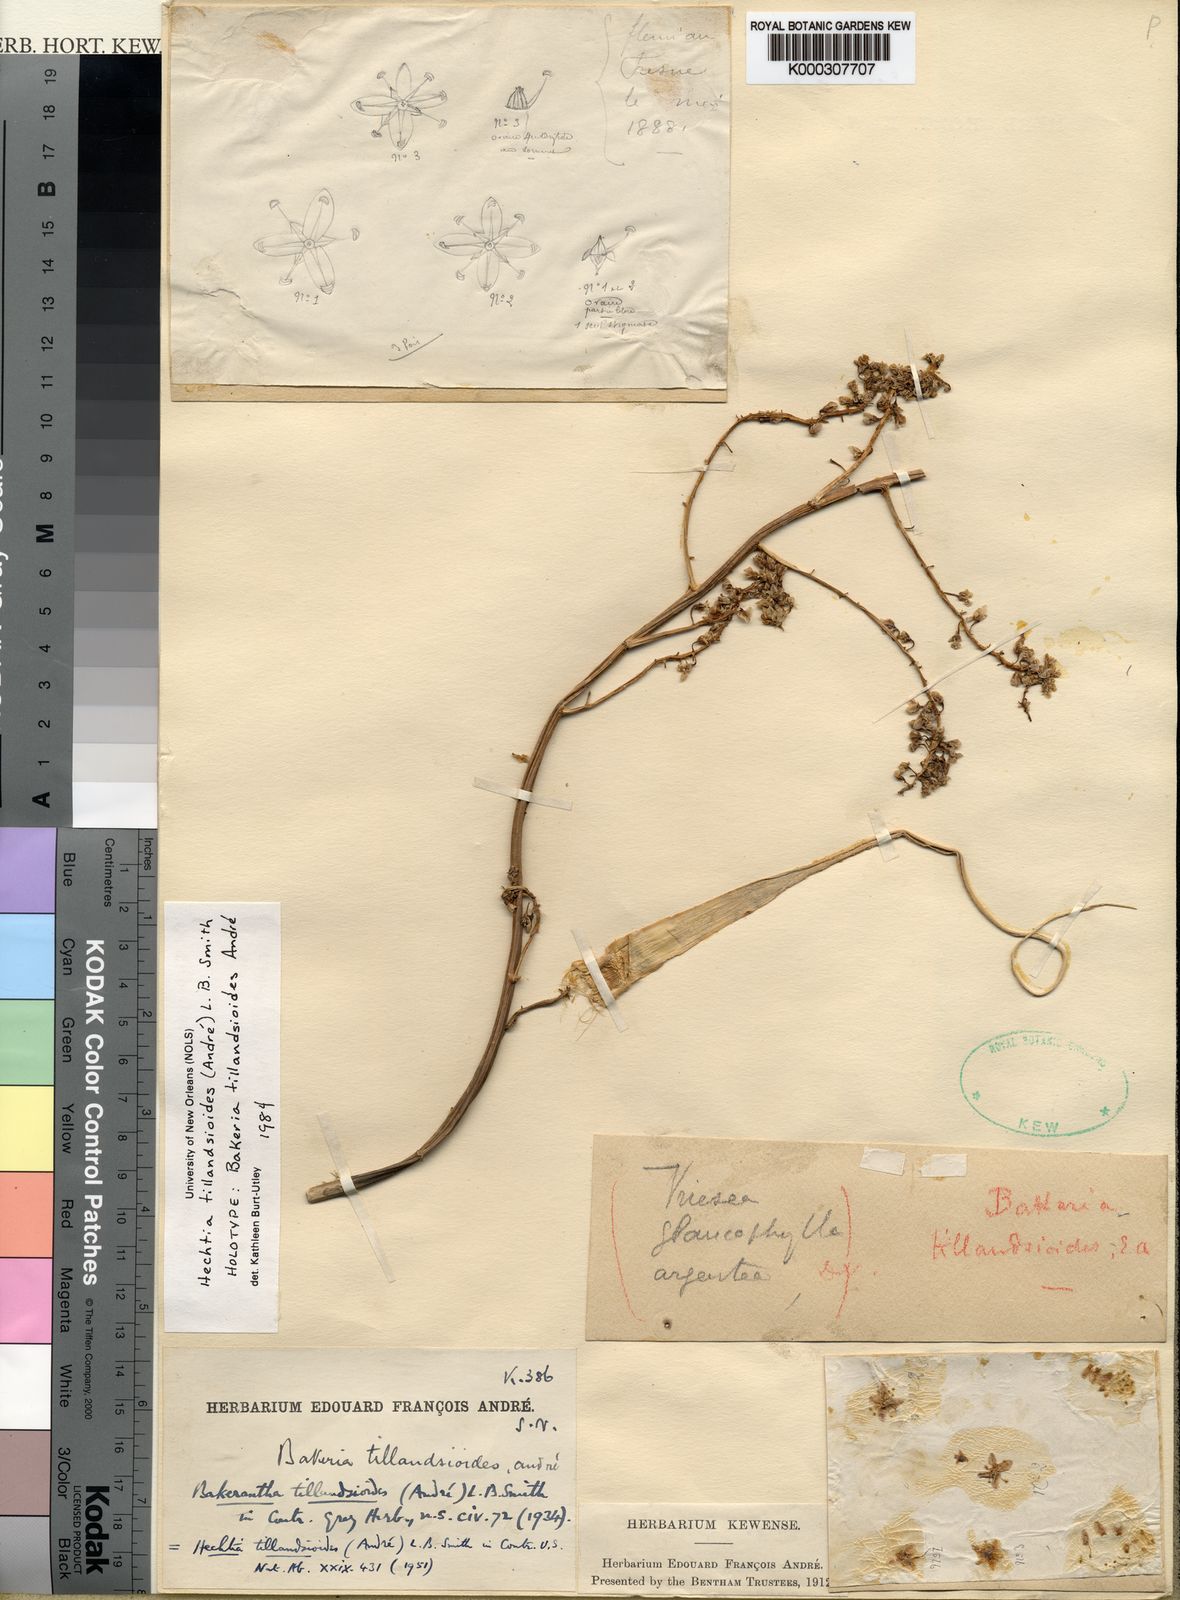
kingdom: Plantae
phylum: Tracheophyta
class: Liliopsida
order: Poales
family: Bromeliaceae
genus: Hechtia
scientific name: Hechtia
